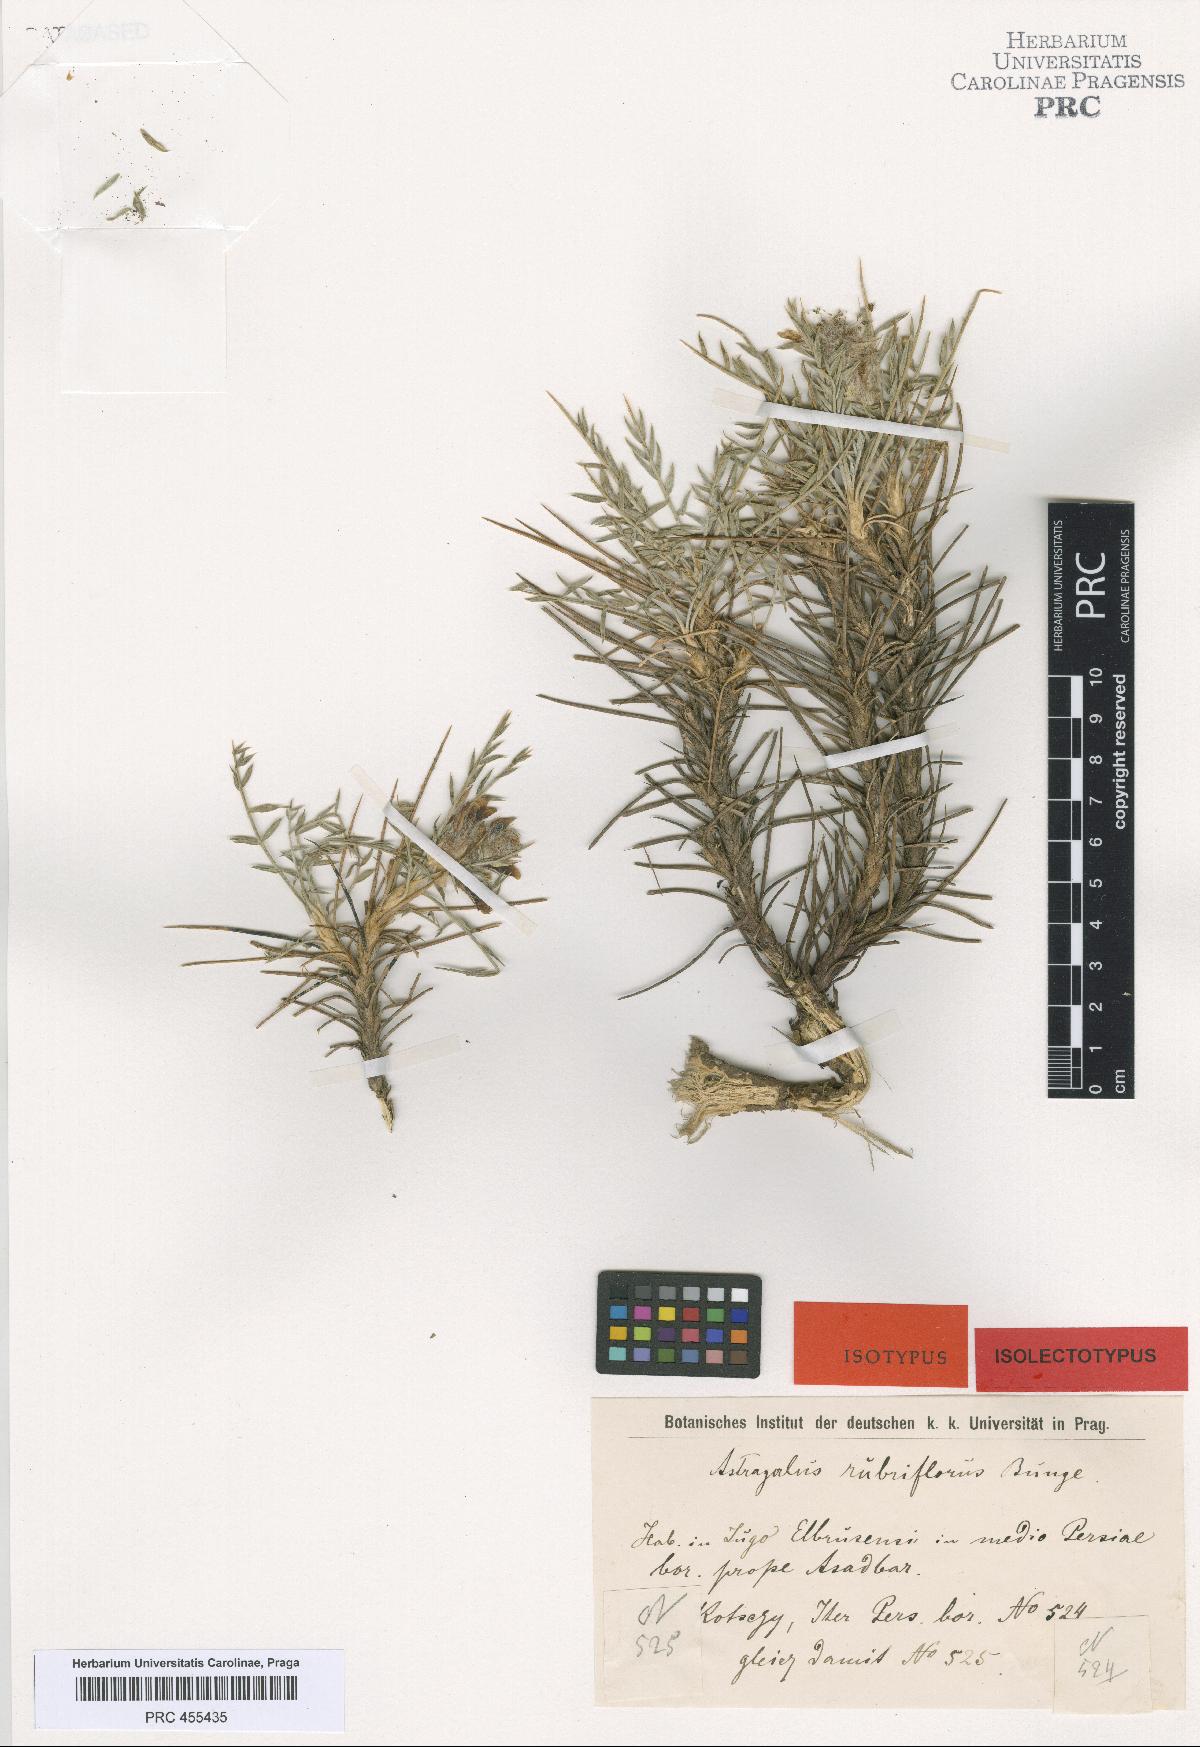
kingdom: Plantae
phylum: Tracheophyta
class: Magnoliopsida
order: Fabales
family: Fabaceae
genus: Astragalus
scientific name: Astragalus rubriflorus
